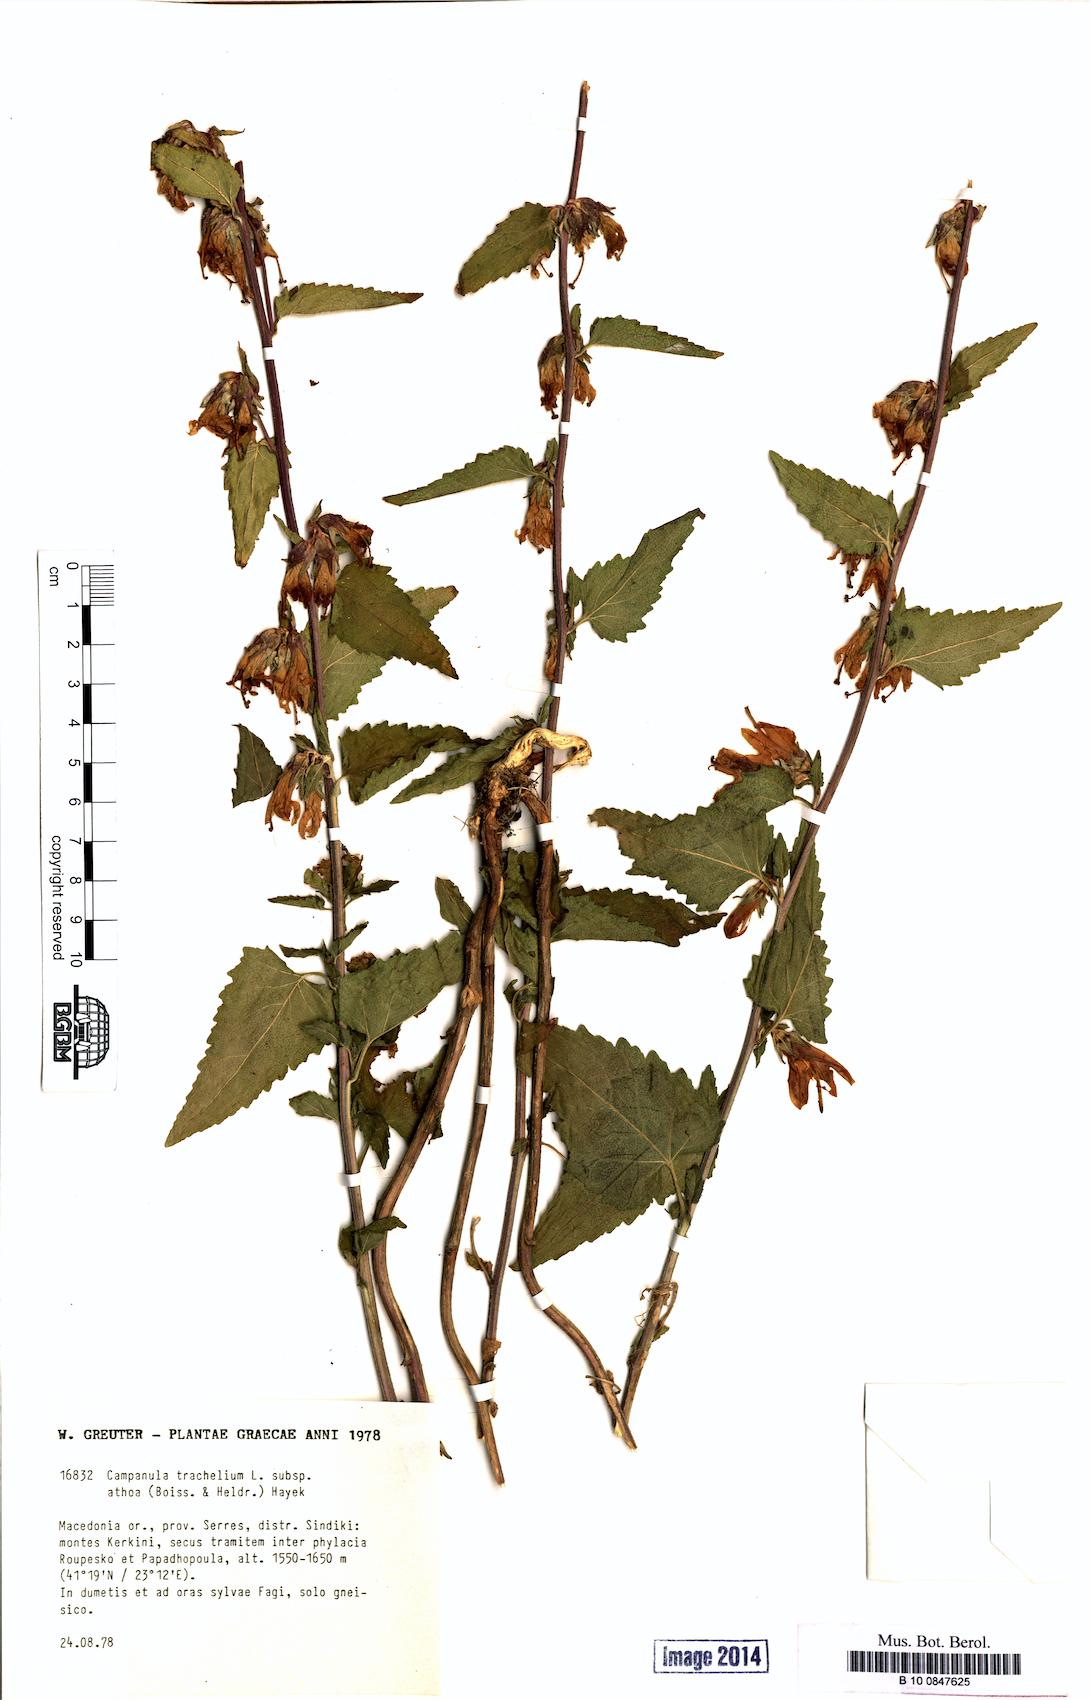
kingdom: Plantae
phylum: Tracheophyta
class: Magnoliopsida
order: Asterales
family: Campanulaceae
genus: Campanula
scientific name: Campanula trachelium
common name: Nettle-leaved bellflower
